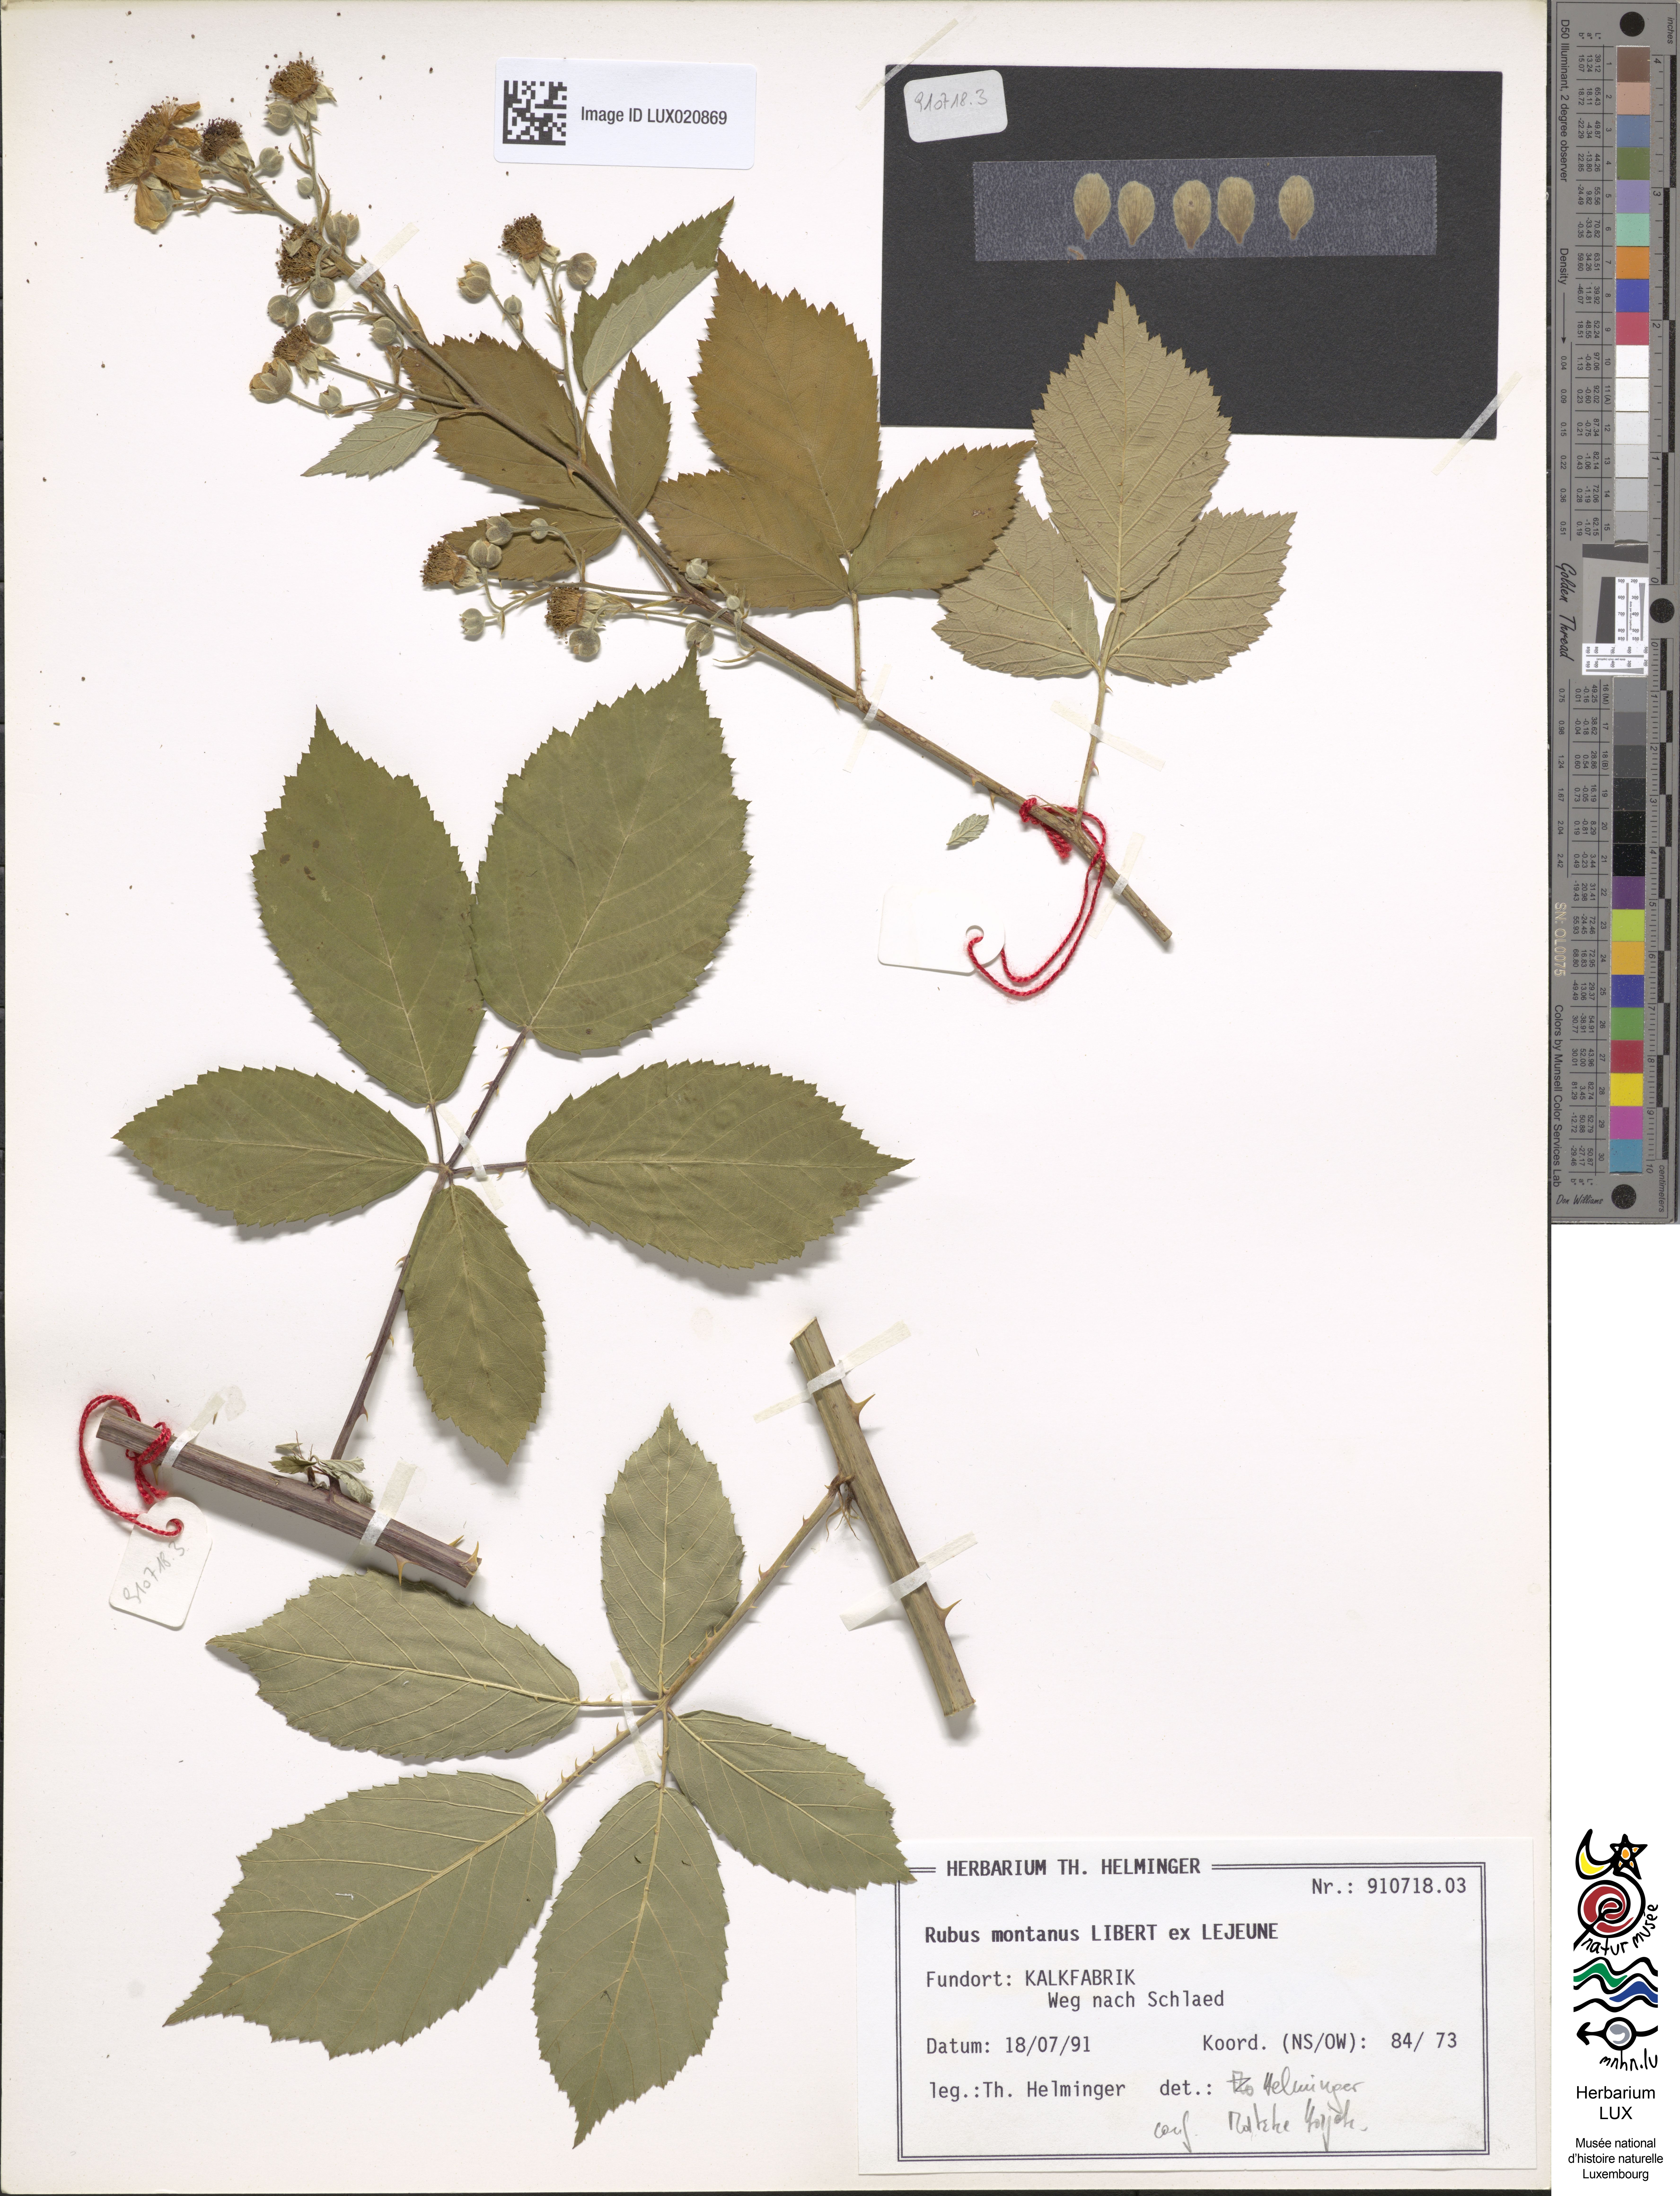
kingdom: Plantae
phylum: Tracheophyta
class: Magnoliopsida
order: Rosales
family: Rosaceae
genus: Rubus
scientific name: Rubus montanus
